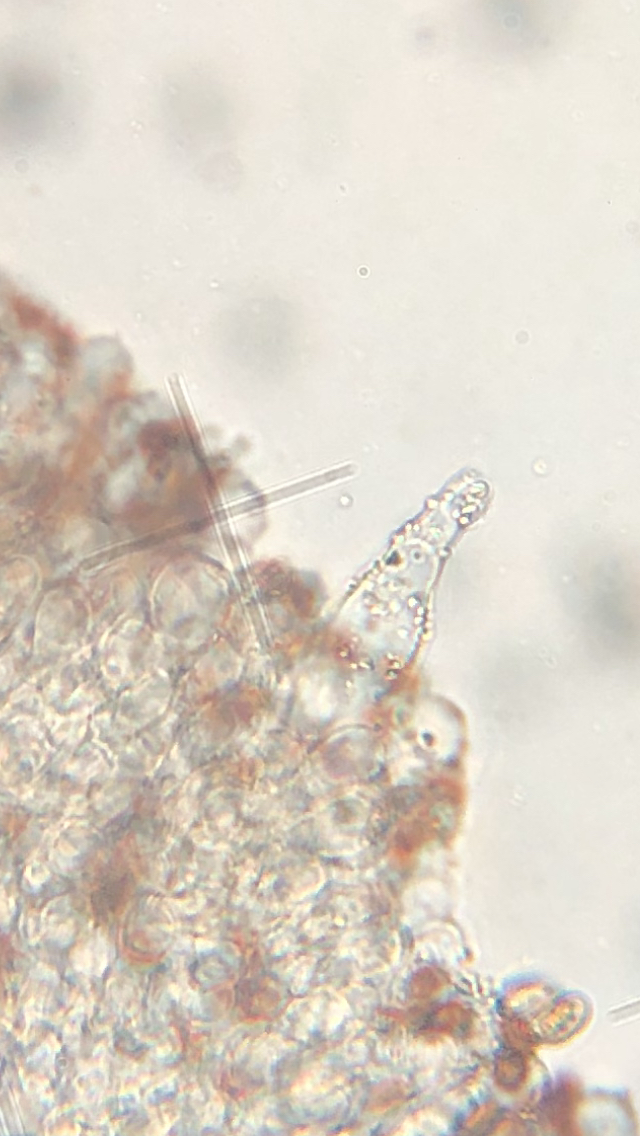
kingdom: Fungi
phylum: Basidiomycota
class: Agaricomycetes
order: Agaricales
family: Psathyrellaceae
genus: Psathyrella
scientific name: Psathyrella spadiceogrisea
